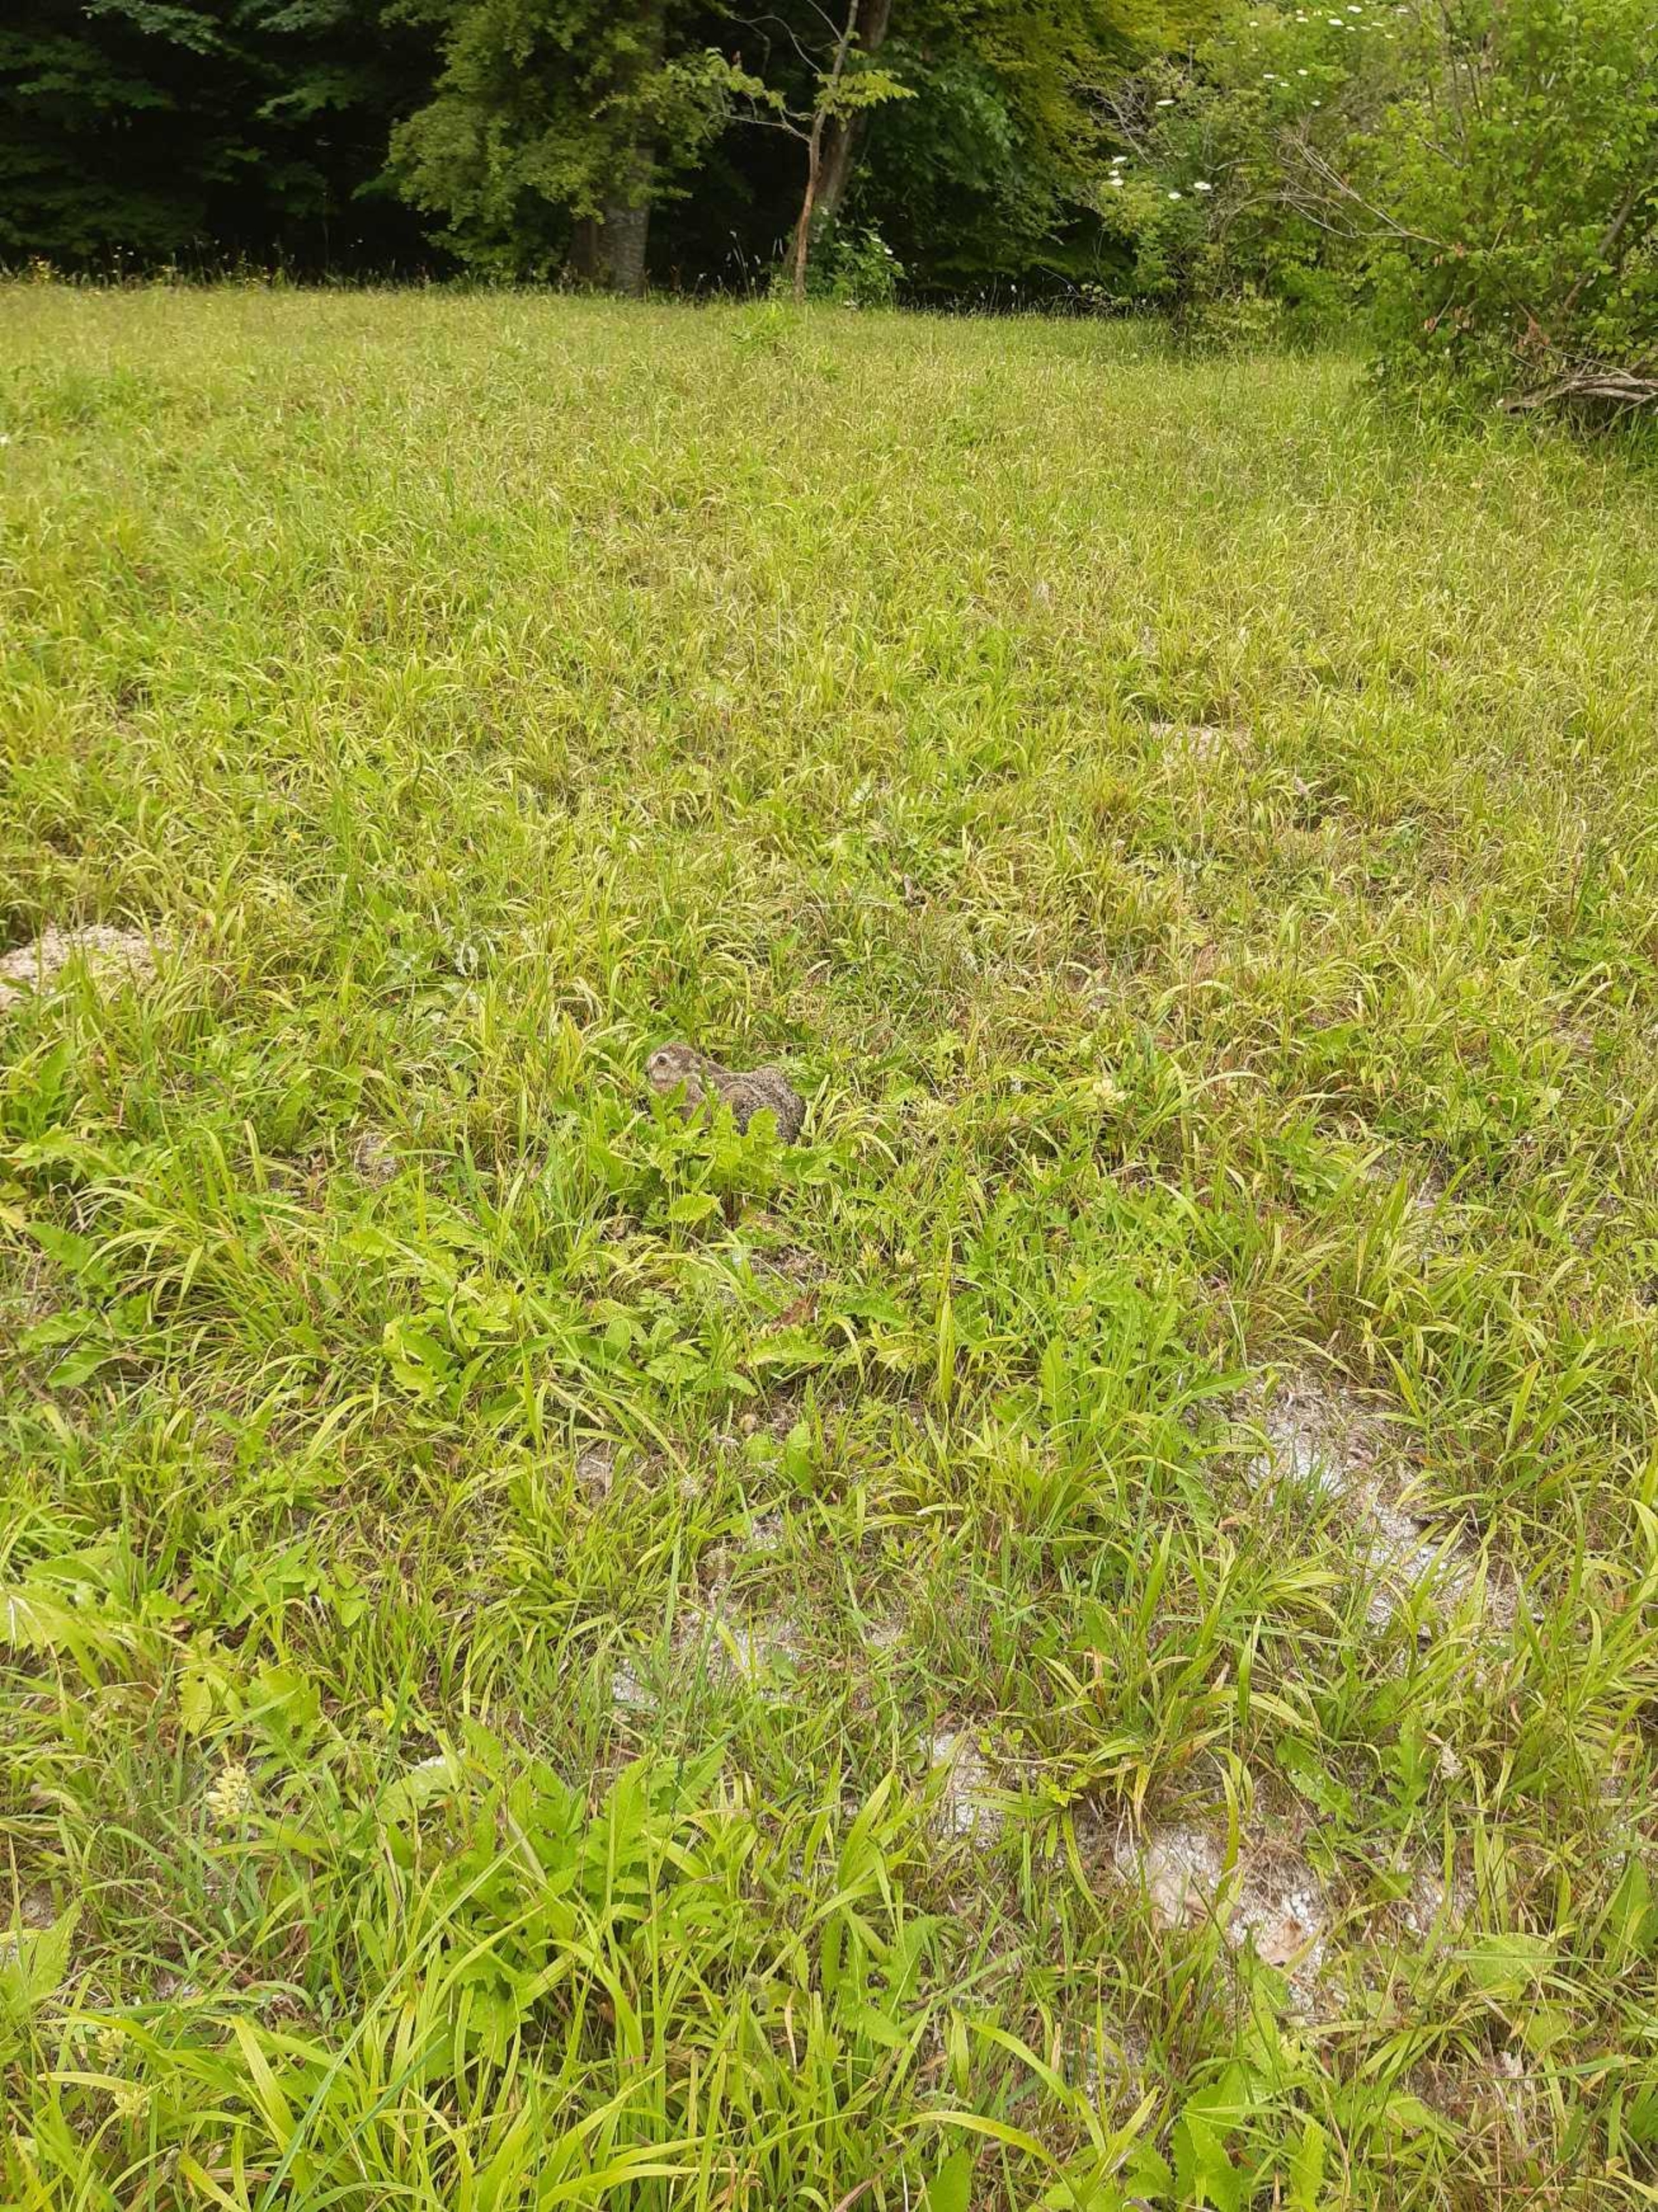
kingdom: Animalia
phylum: Chordata
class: Mammalia
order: Lagomorpha
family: Leporidae
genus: Lepus
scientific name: Lepus europaeus
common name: Hare
